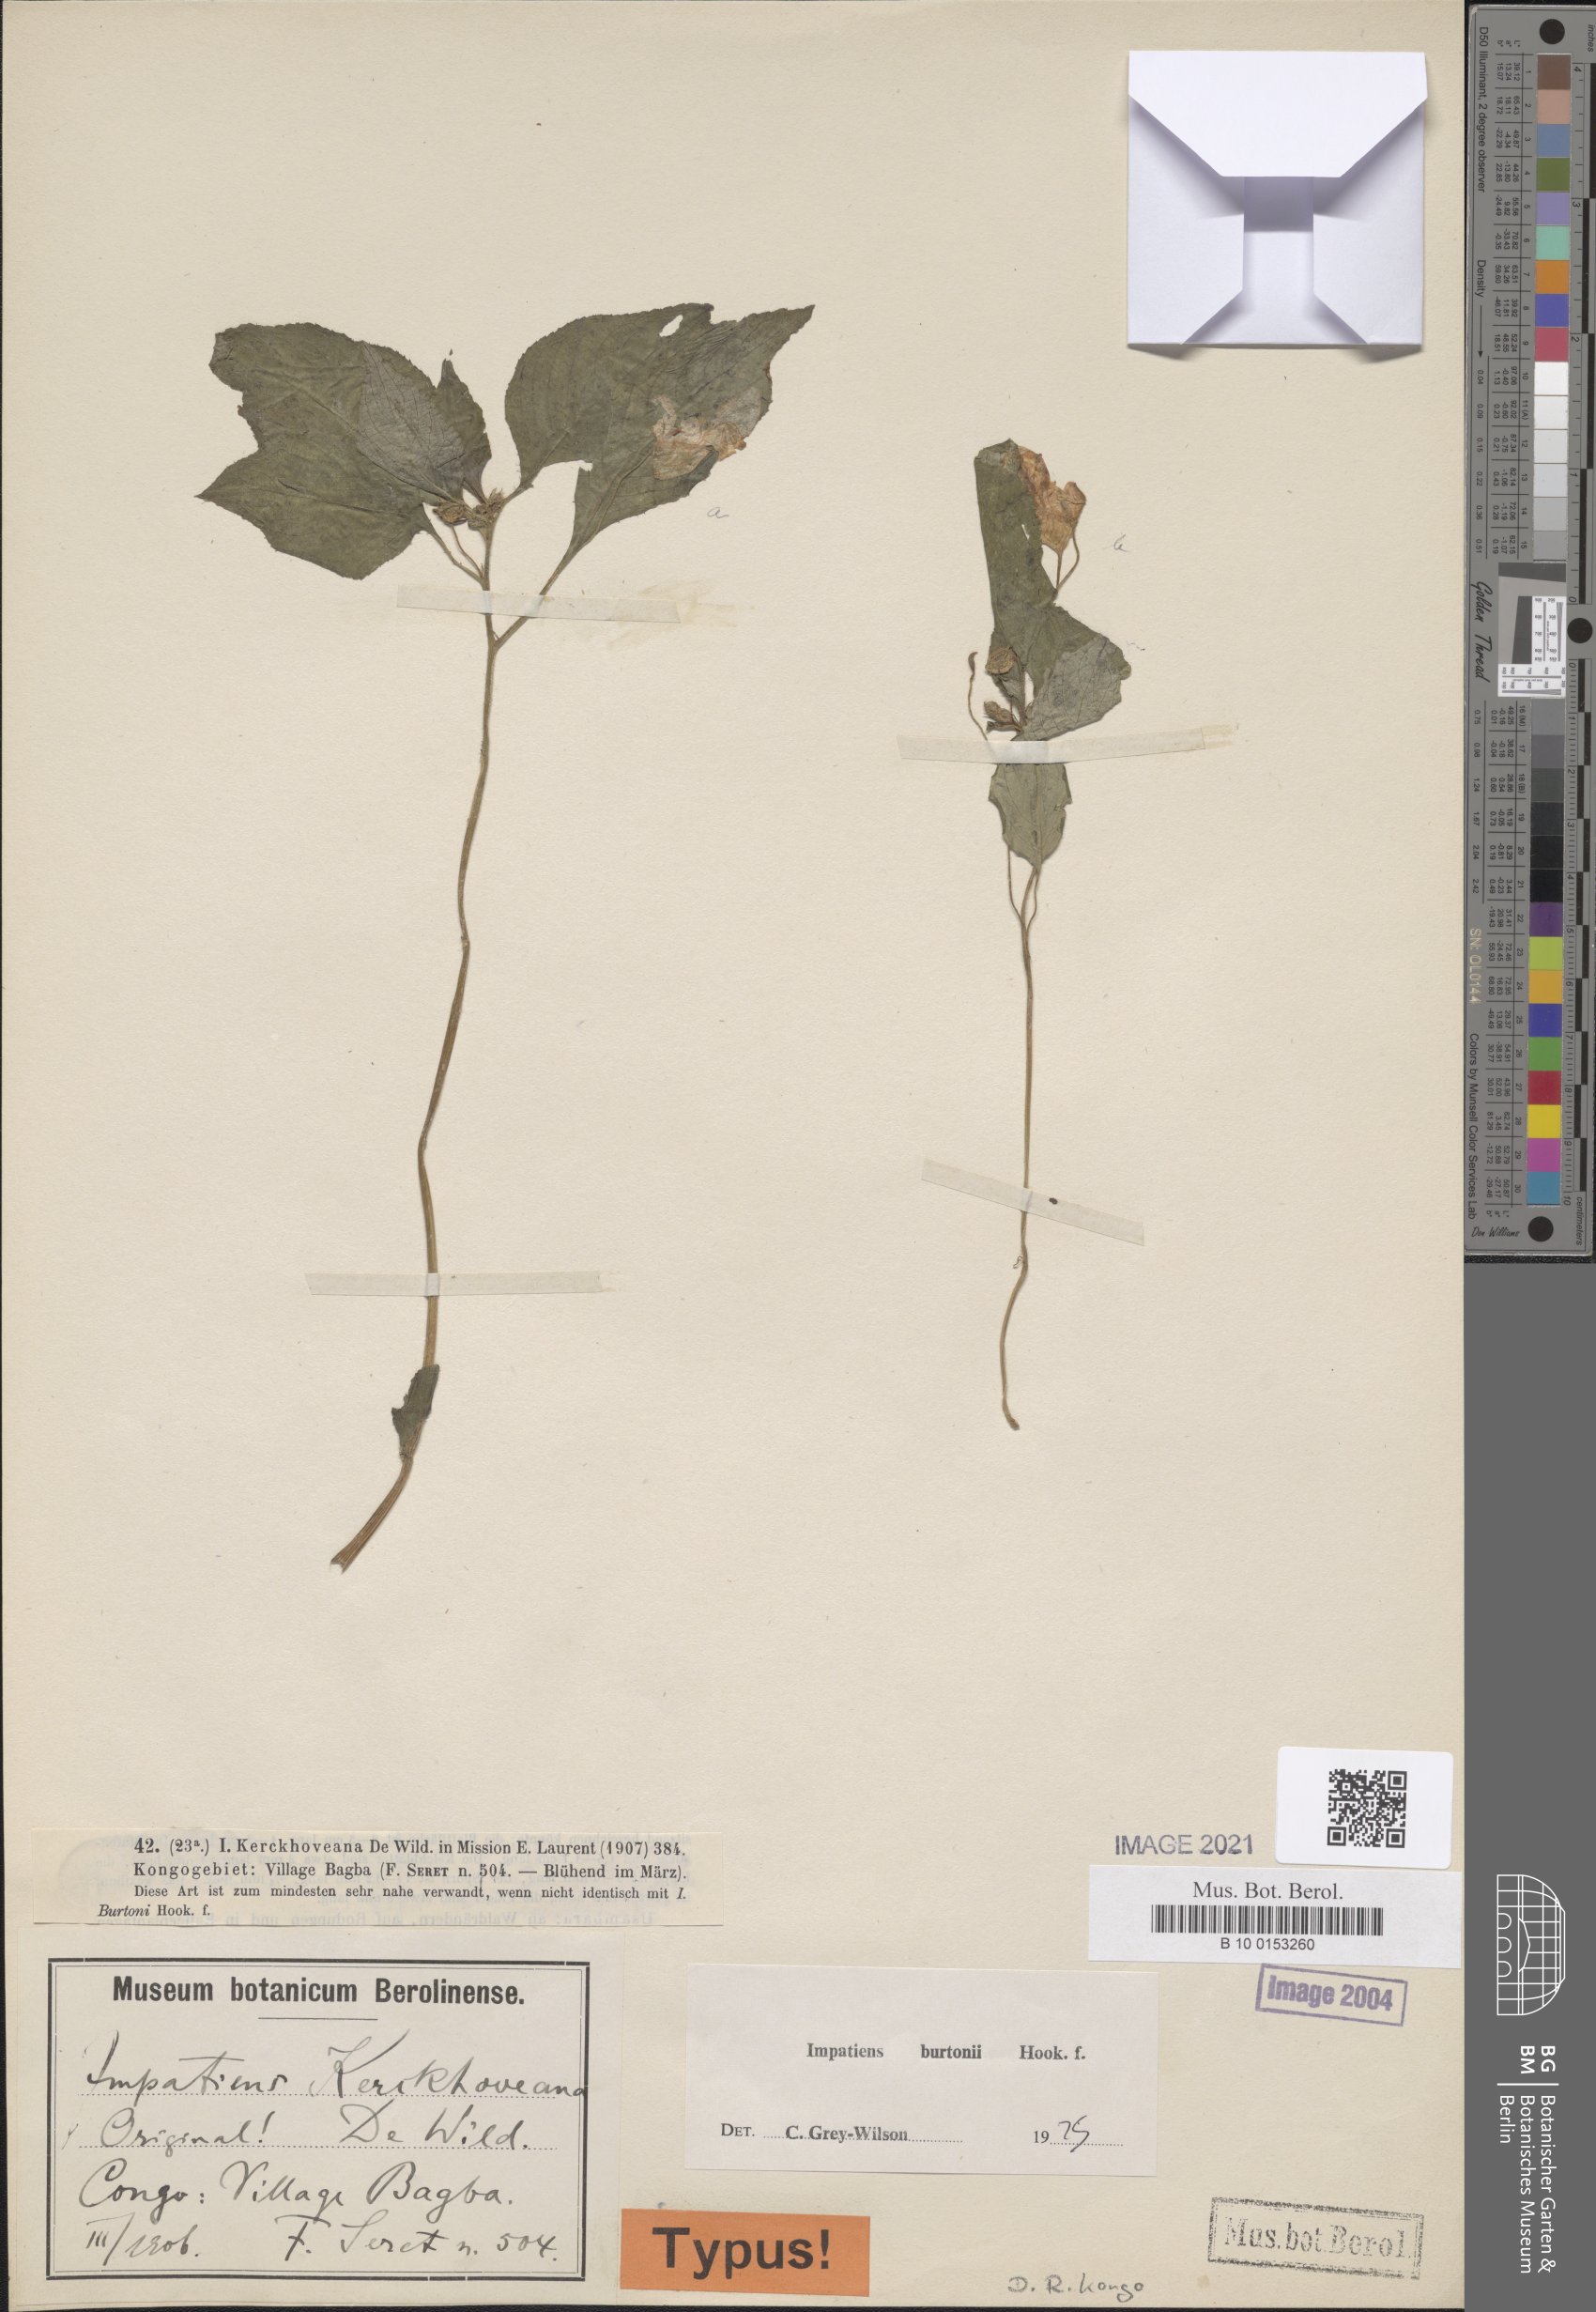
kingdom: Plantae
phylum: Tracheophyta
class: Magnoliopsida
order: Ericales
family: Balsaminaceae
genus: Impatiens
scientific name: Impatiens burtonii
